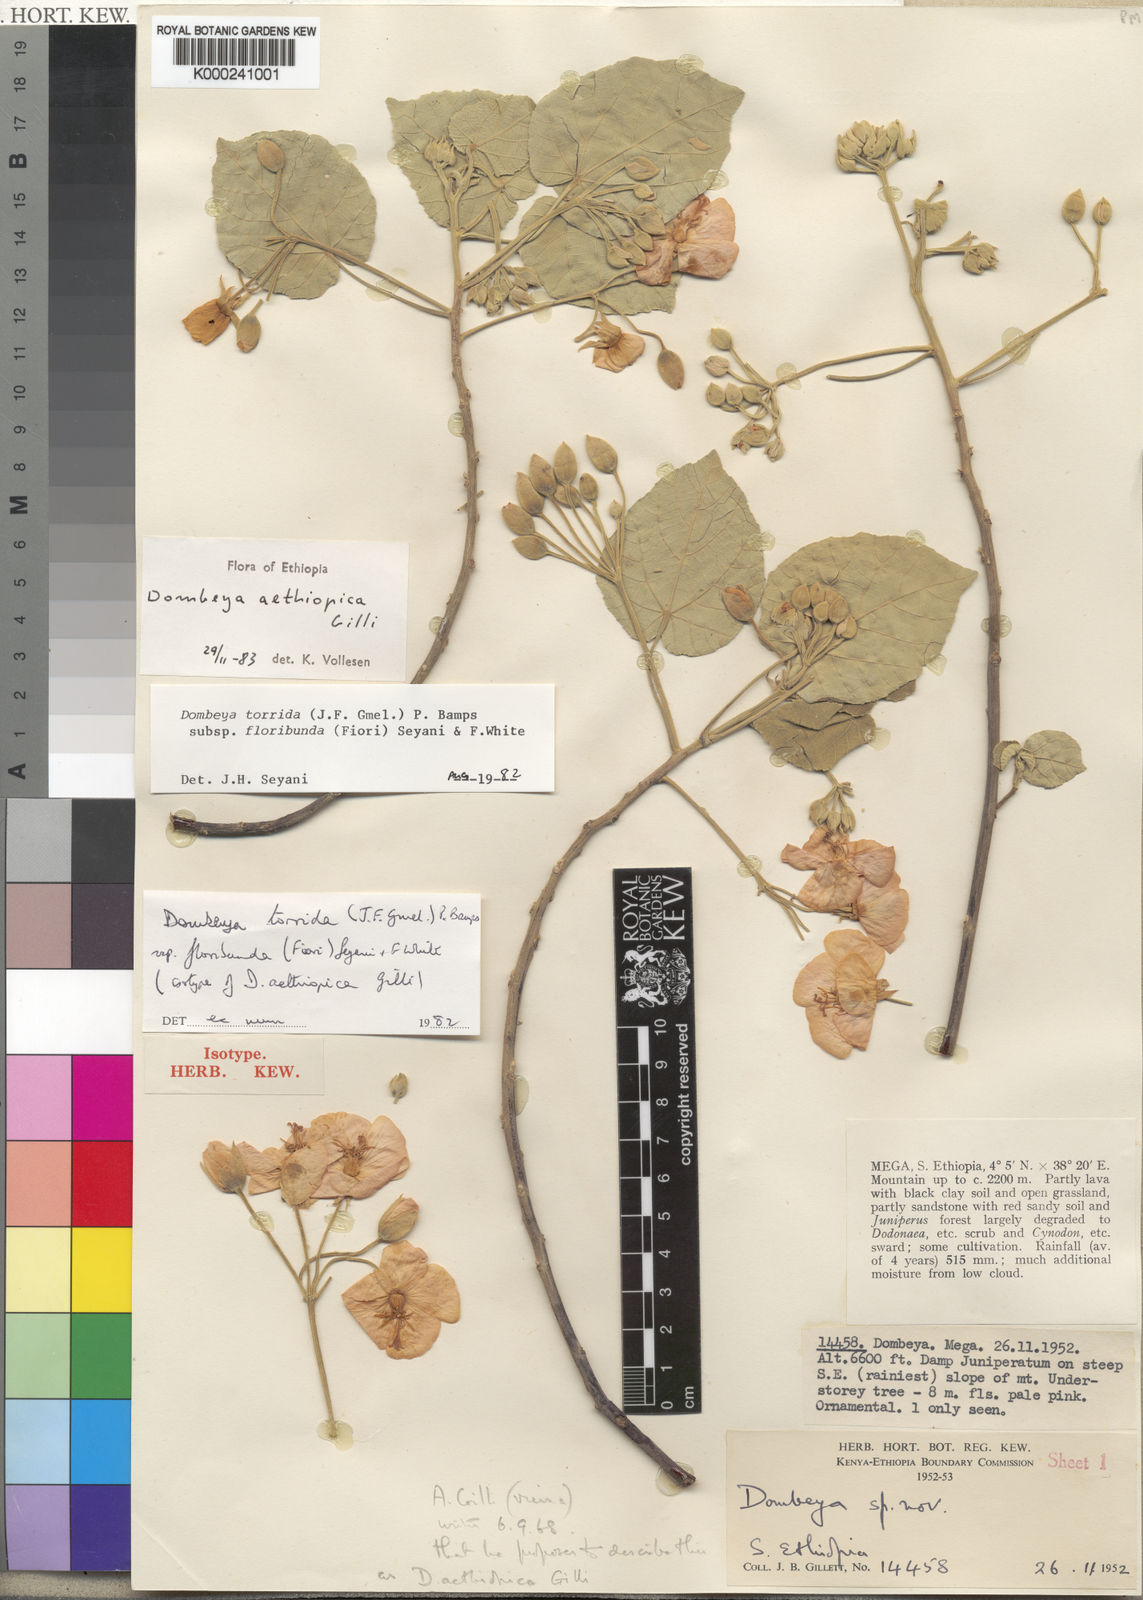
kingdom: Plantae
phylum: Tracheophyta
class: Magnoliopsida
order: Malvales
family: Malvaceae
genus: Dombeya
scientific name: Dombeya aethiopica
